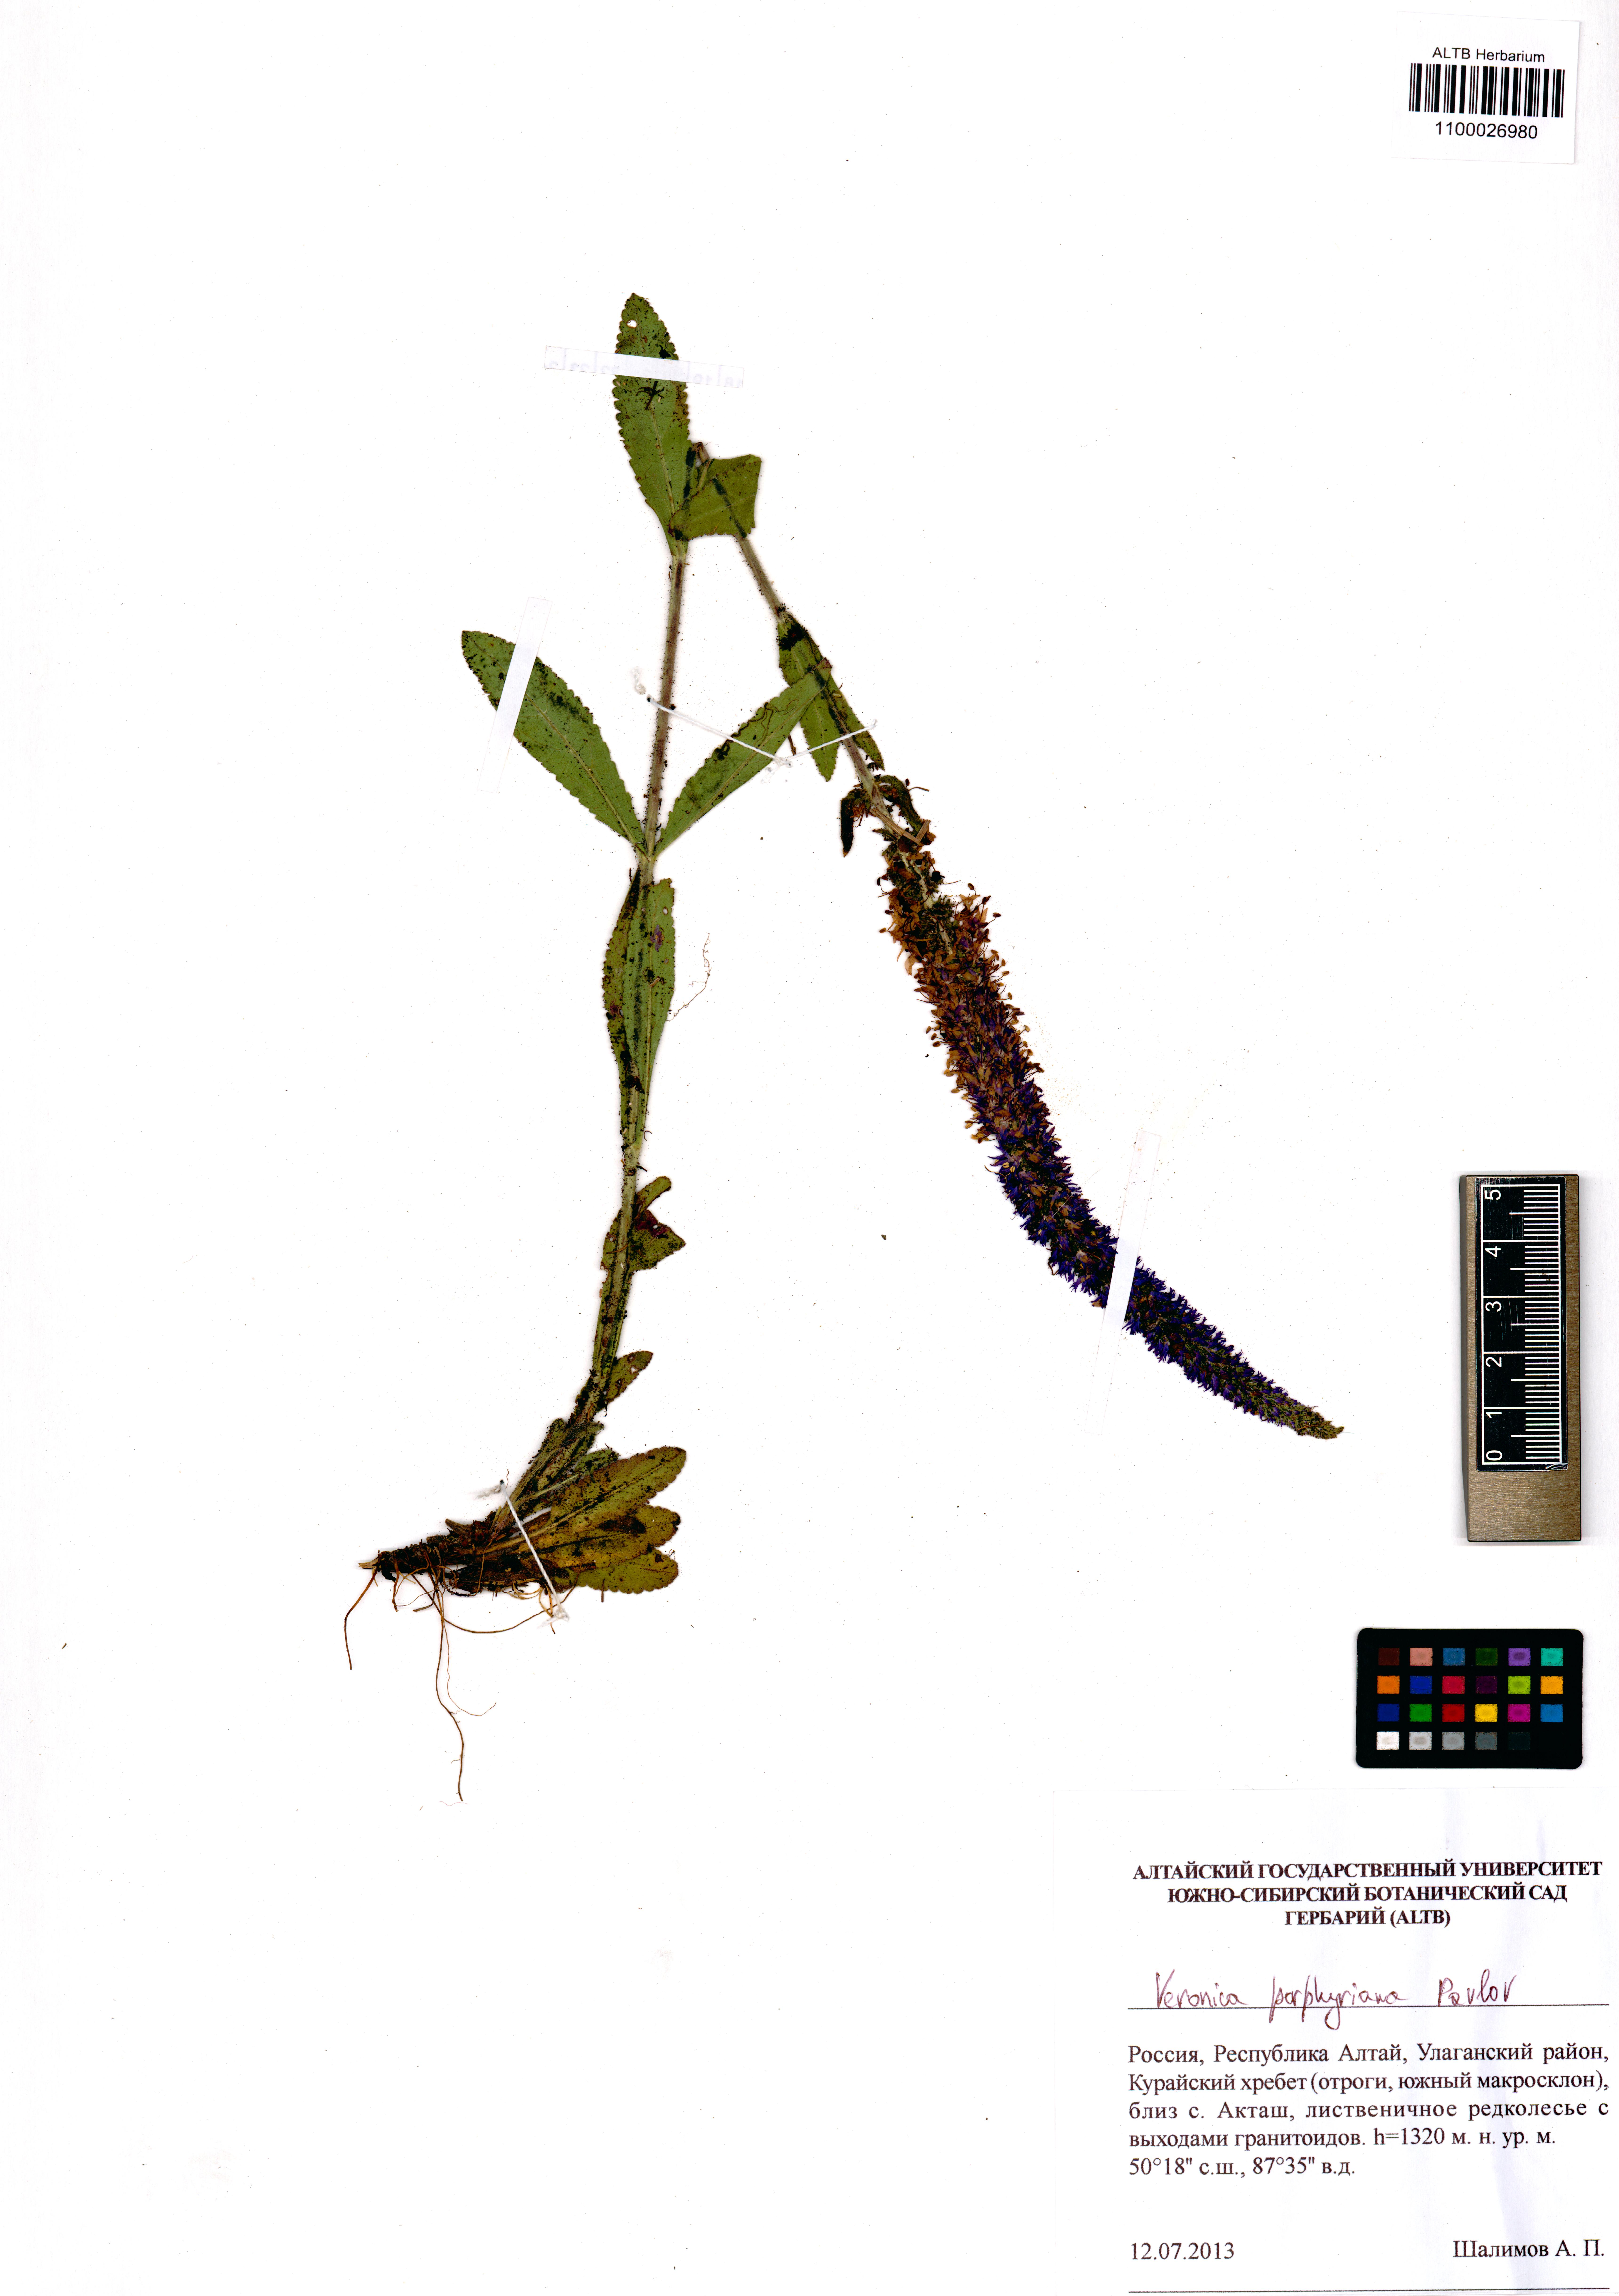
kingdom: Plantae
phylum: Tracheophyta
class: Magnoliopsida
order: Lamiales
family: Plantaginaceae
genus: Veronica
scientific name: Veronica porphyriana
